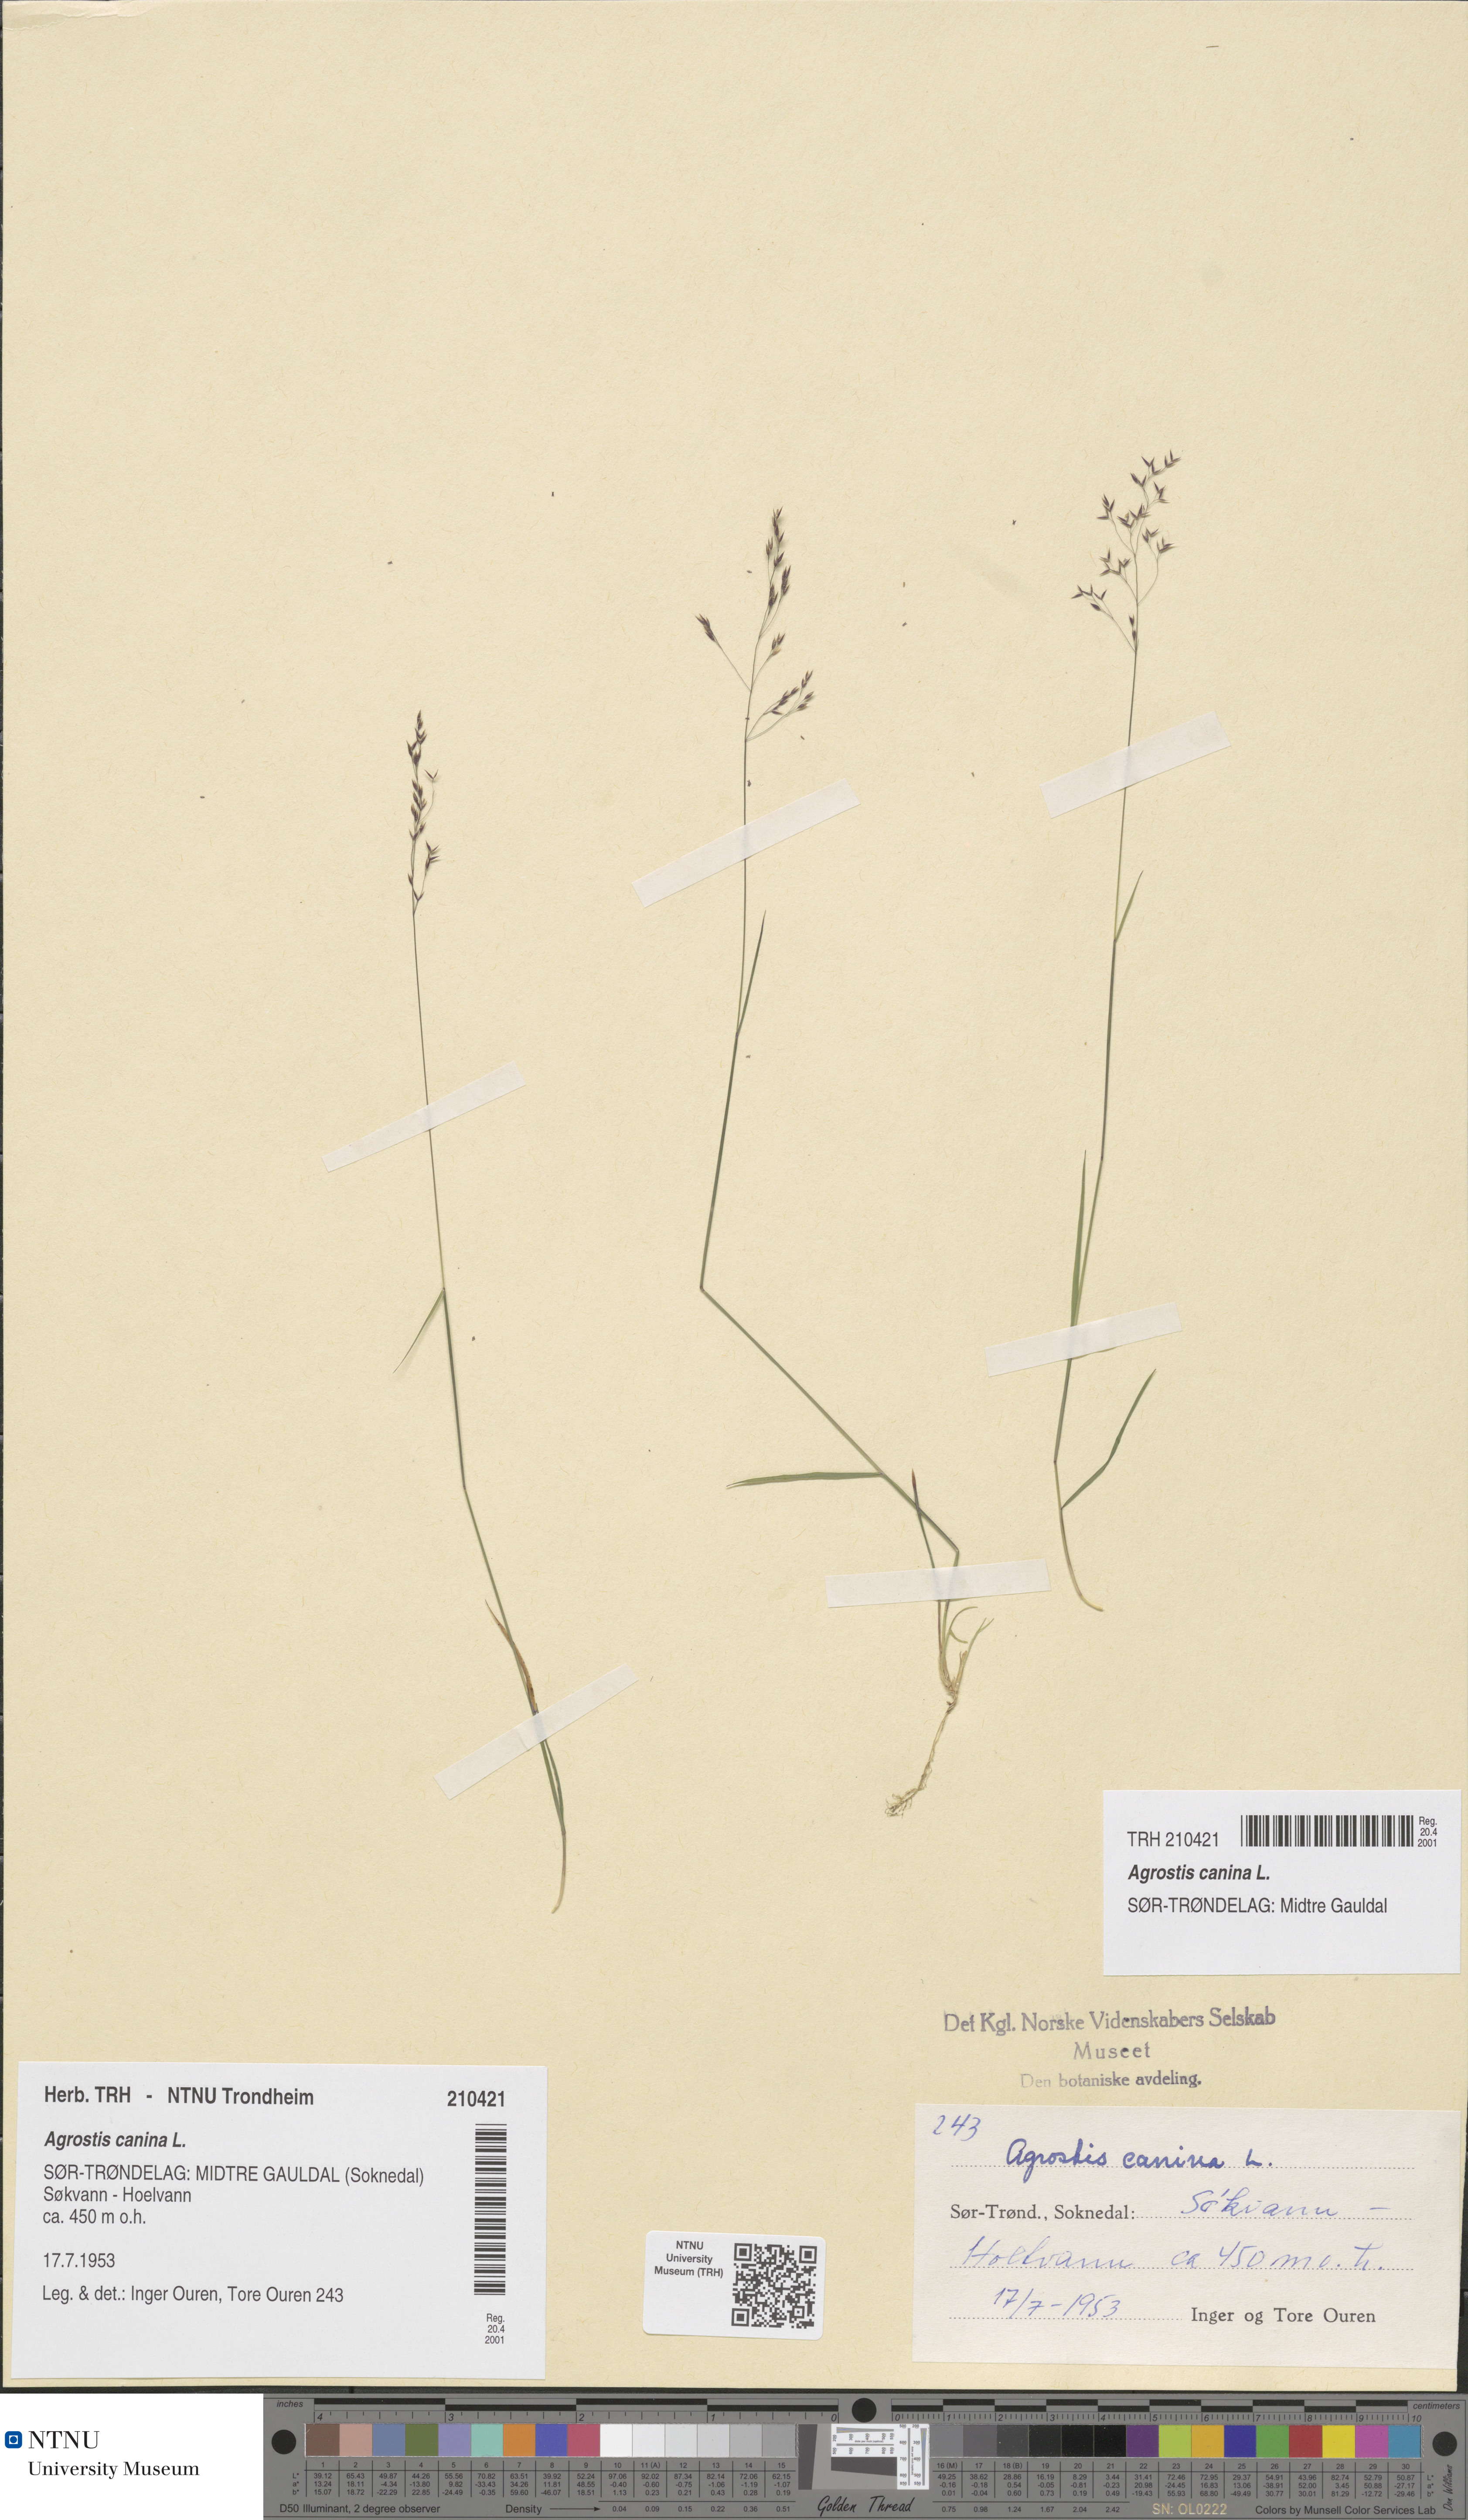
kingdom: Plantae
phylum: Tracheophyta
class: Liliopsida
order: Poales
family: Poaceae
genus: Agrostis
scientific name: Agrostis canina
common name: Velvet bent
